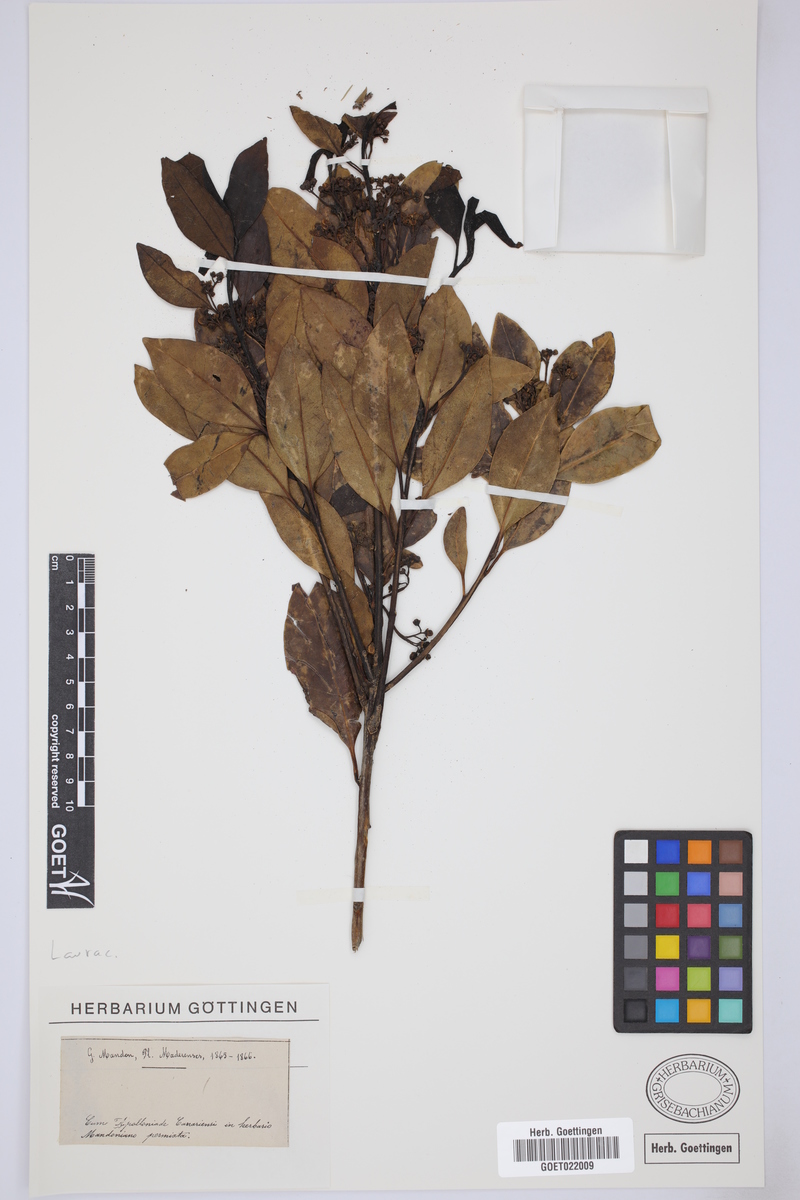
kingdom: Plantae
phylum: Tracheophyta
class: Magnoliopsida
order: Laurales
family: Lauraceae
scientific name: Lauraceae
